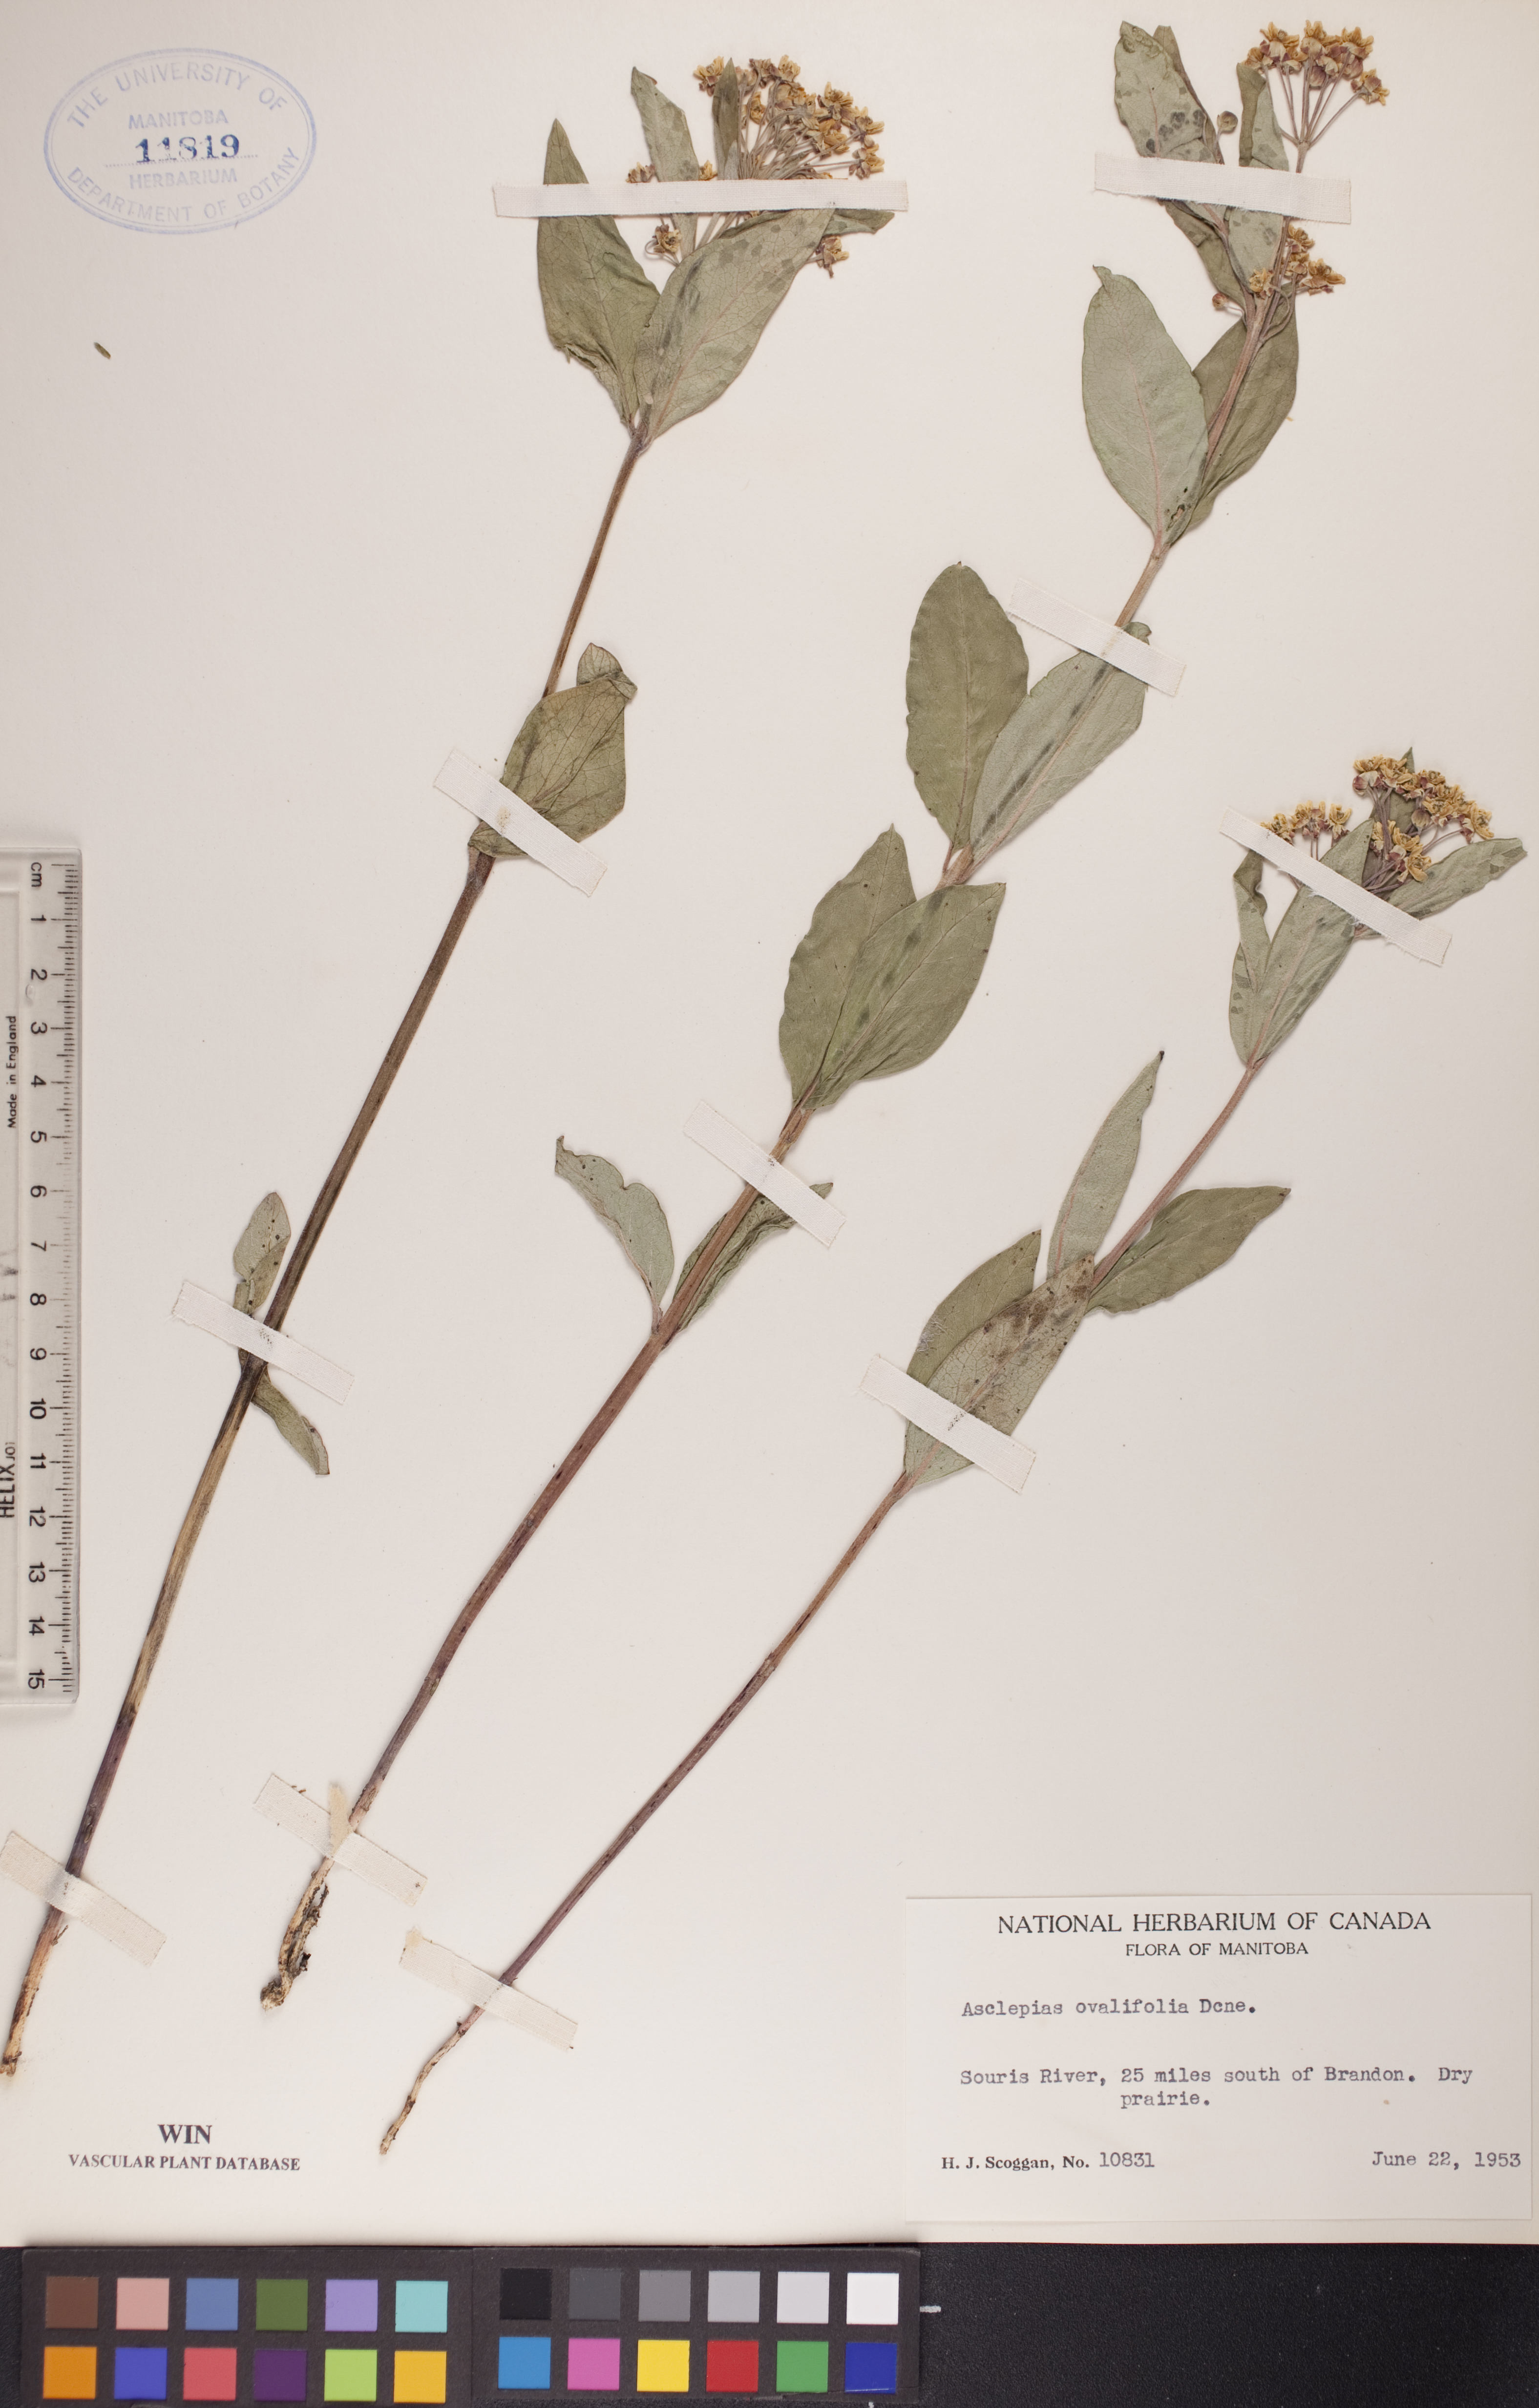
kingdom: Plantae
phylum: Tracheophyta
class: Magnoliopsida
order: Gentianales
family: Apocynaceae
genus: Asclepias
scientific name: Asclepias ovalifolia
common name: Dwarf milkweed
